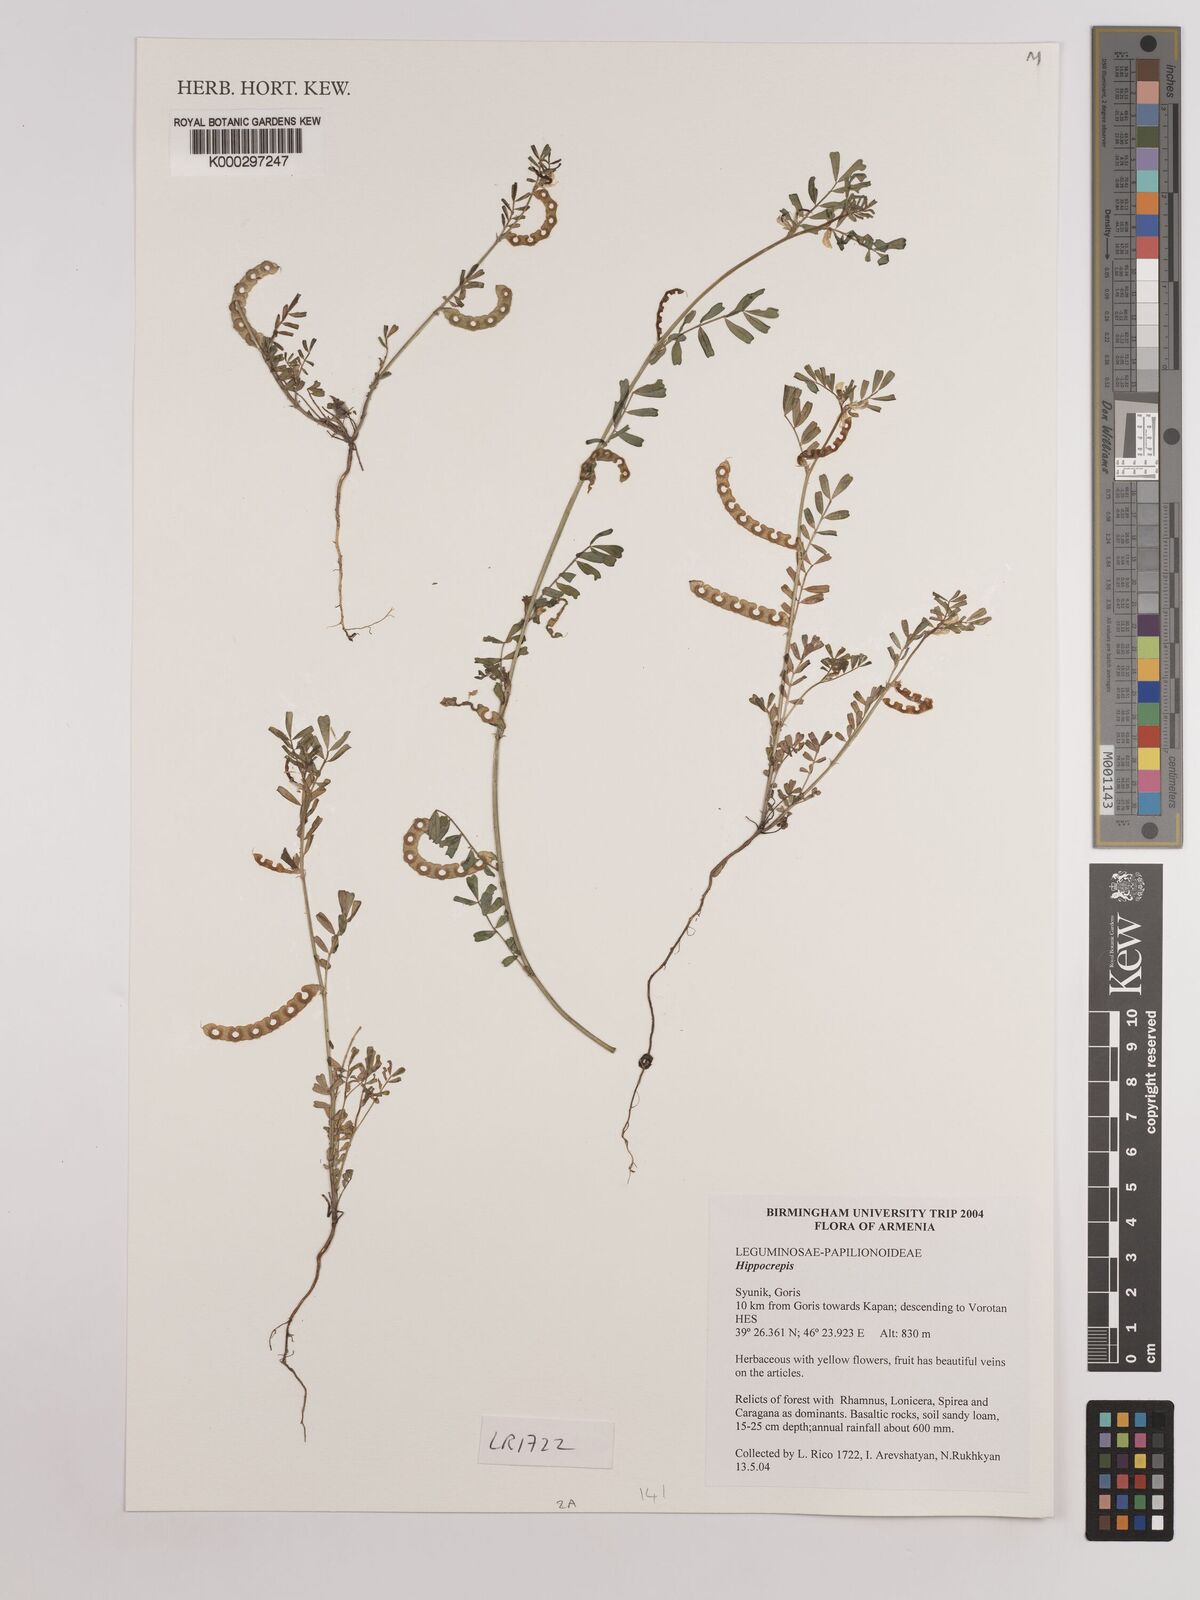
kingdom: Plantae
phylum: Tracheophyta
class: Magnoliopsida
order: Fabales
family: Fabaceae
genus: Hippocrepis
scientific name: Hippocrepis
